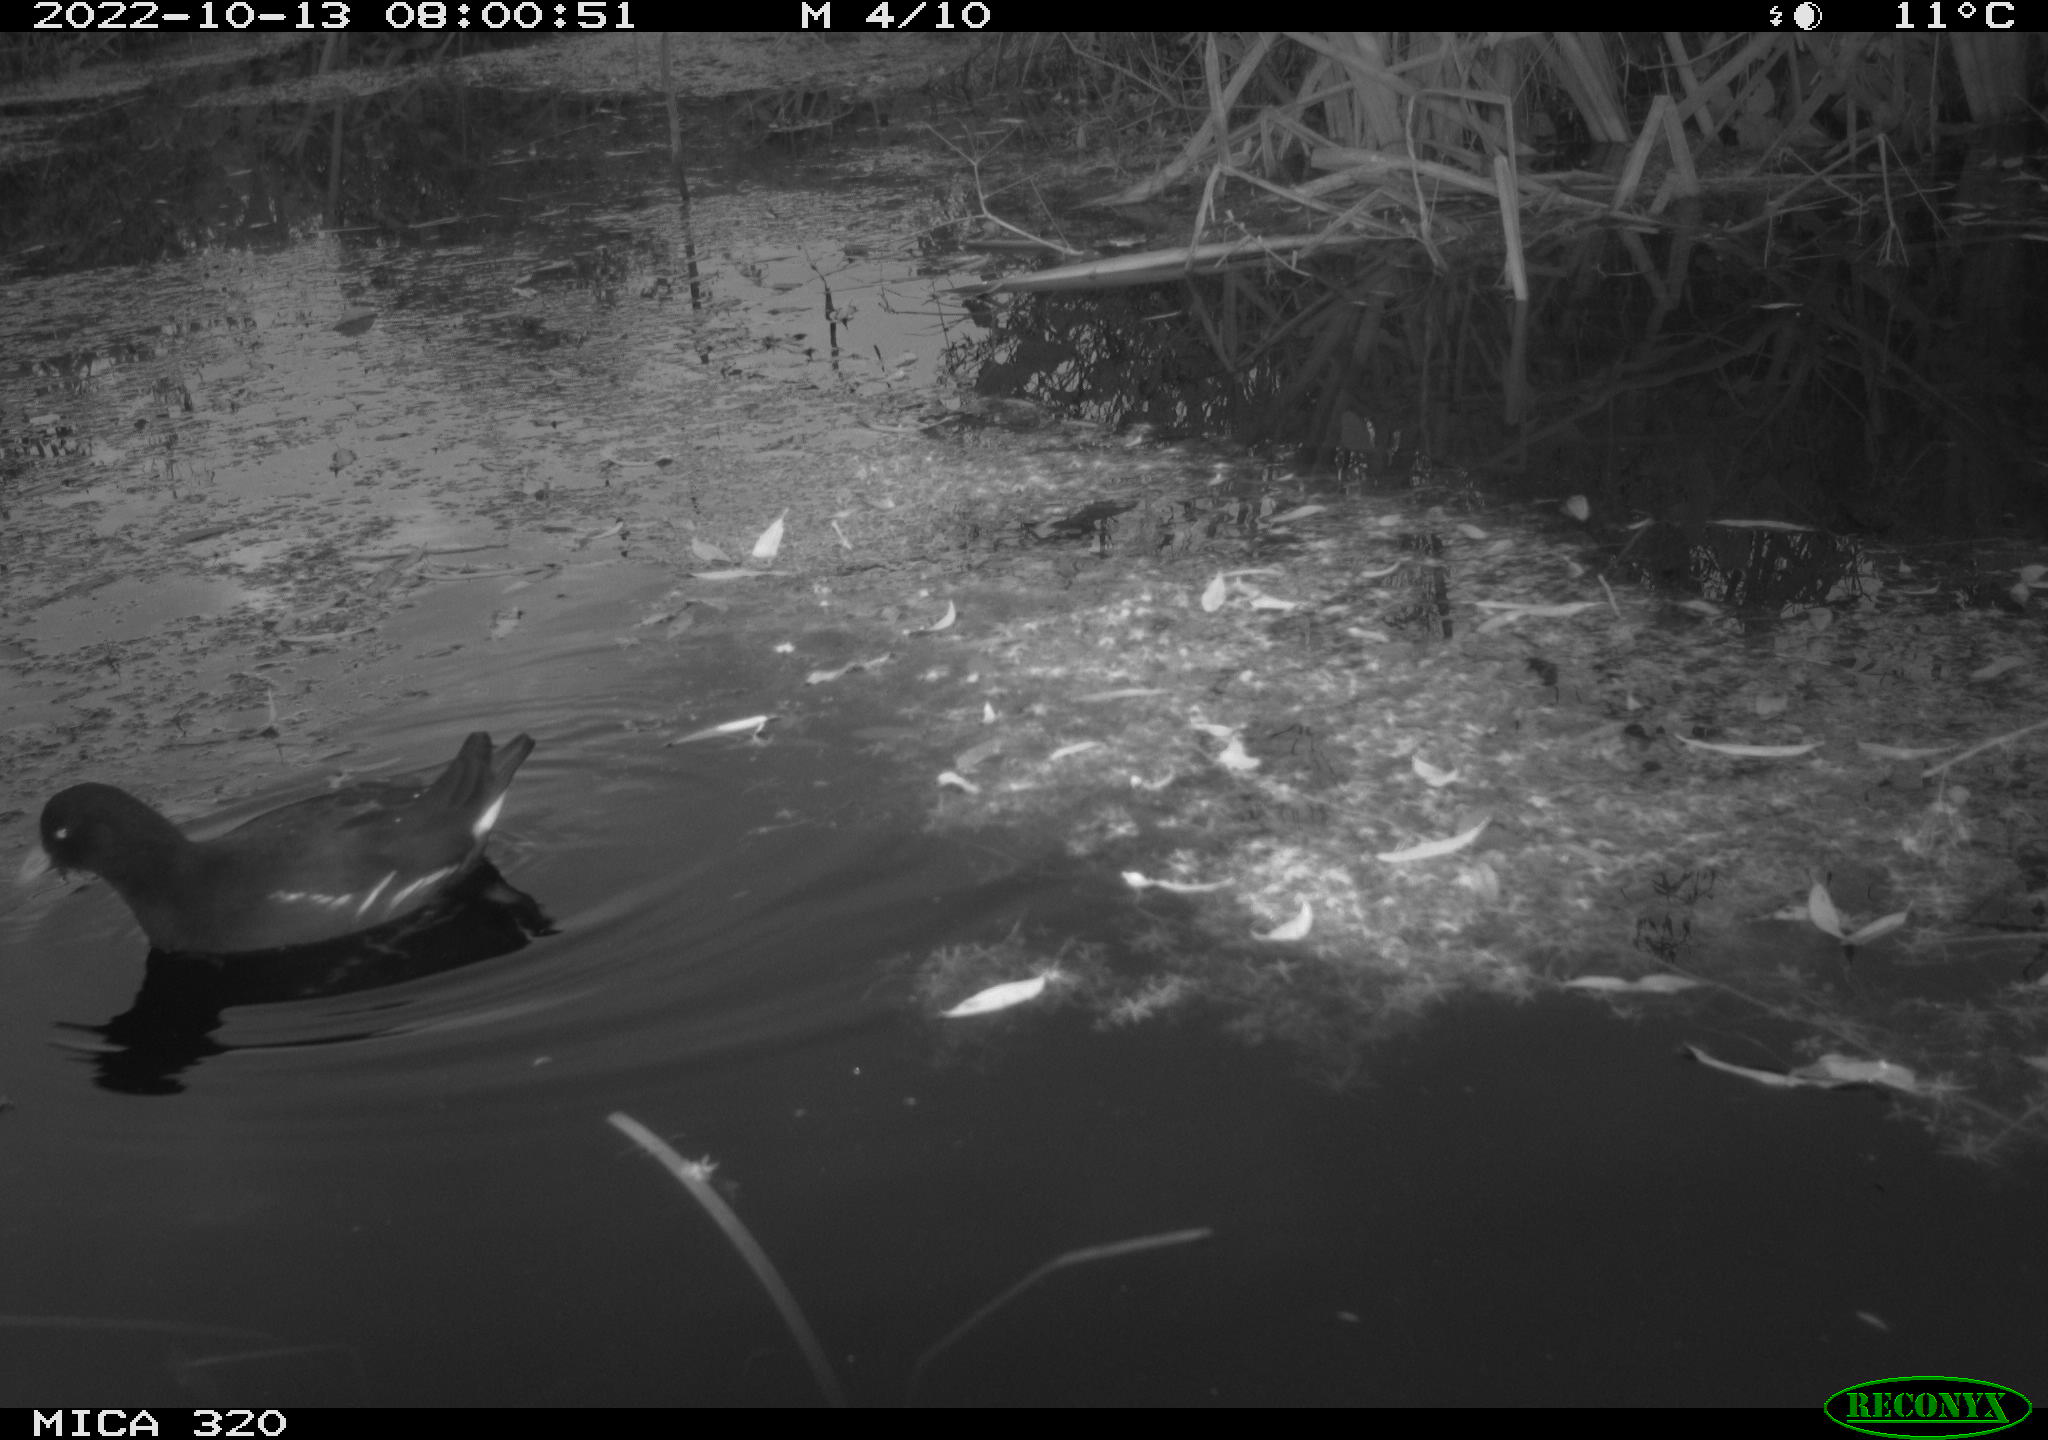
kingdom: Animalia
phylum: Chordata
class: Aves
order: Gruiformes
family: Rallidae
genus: Gallinula
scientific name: Gallinula chloropus
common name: Common moorhen
